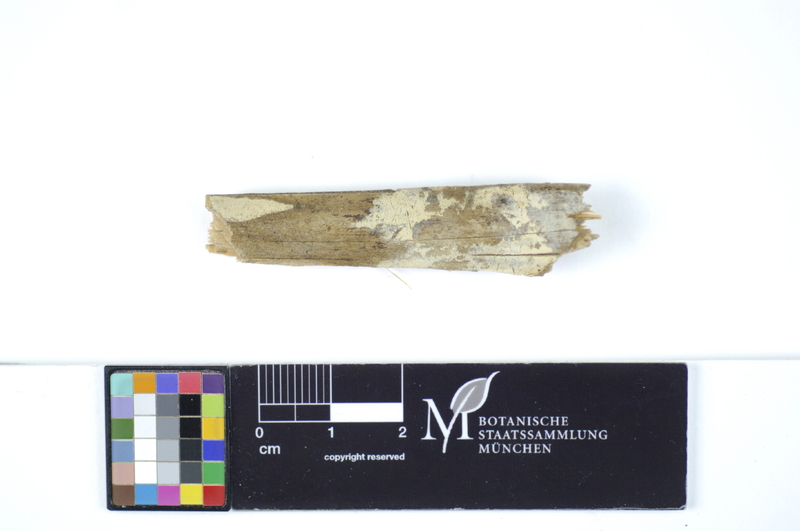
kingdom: Fungi
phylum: Basidiomycota
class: Agaricomycetes
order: Polyporales
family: Hyphodermataceae
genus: Hyphoderma
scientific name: Hyphoderma obtusiforme
